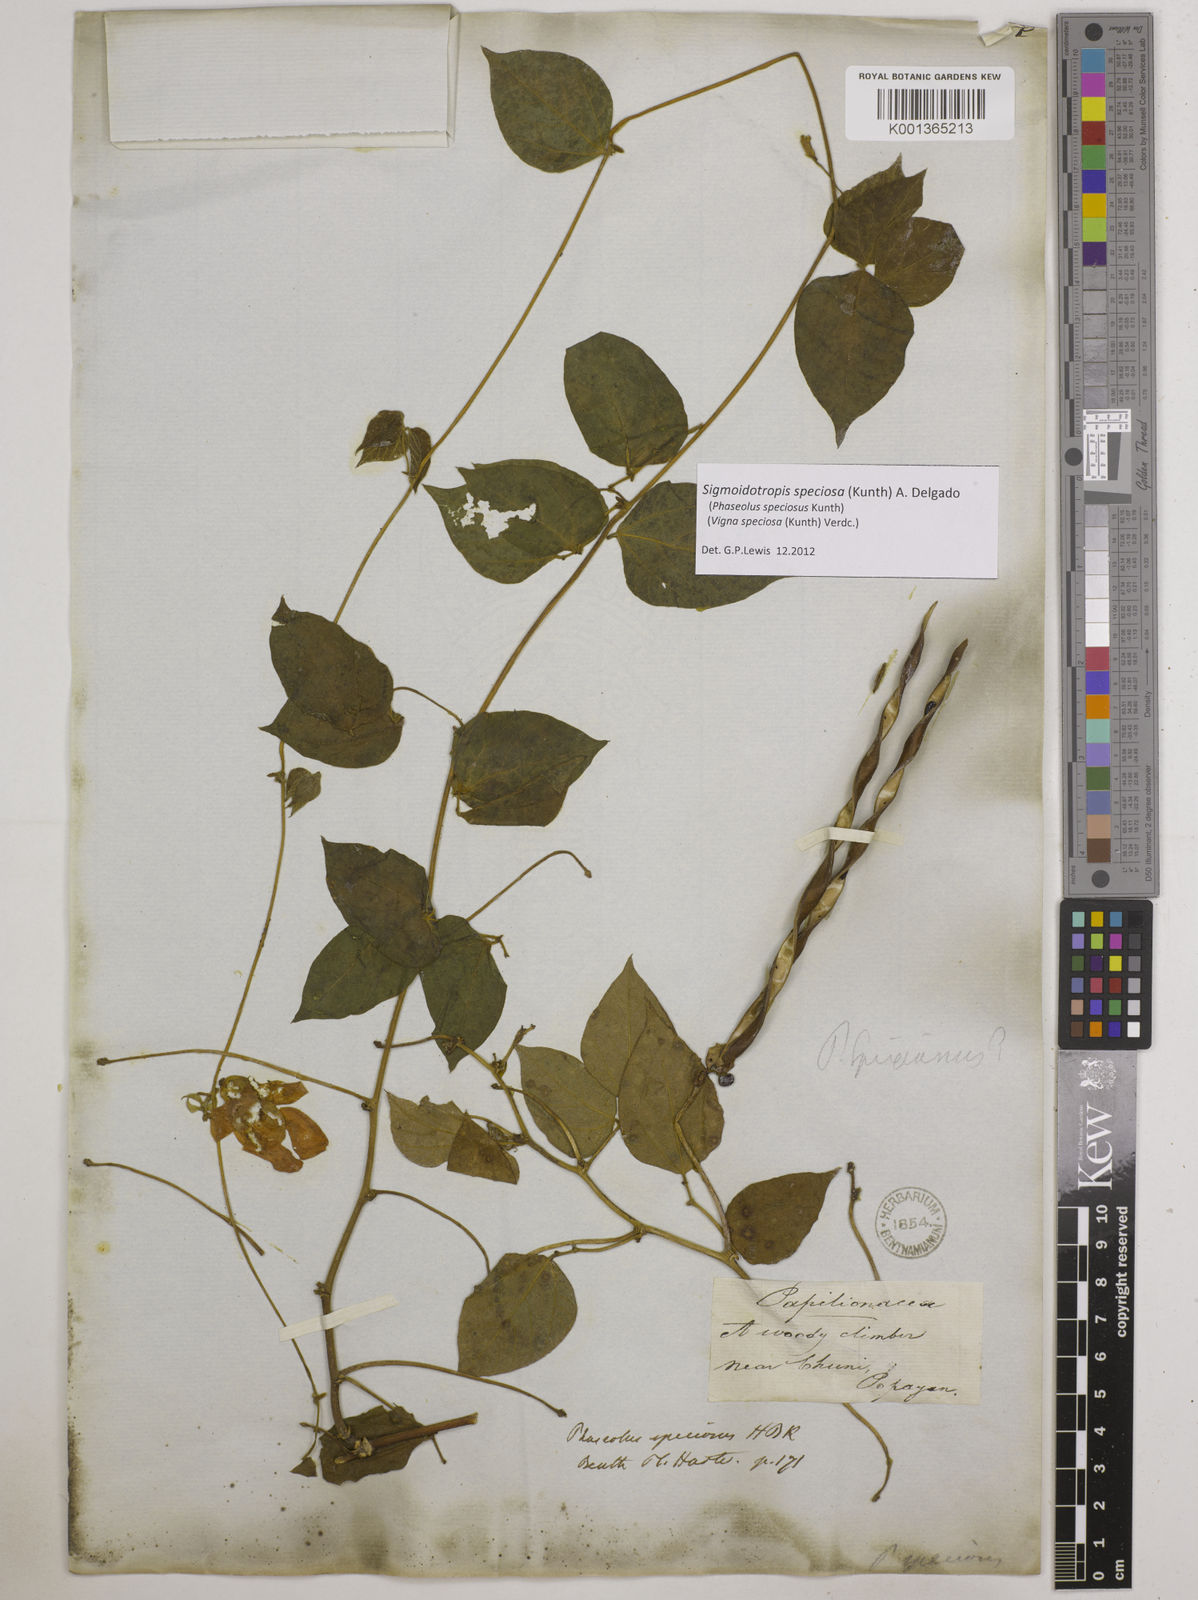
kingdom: Plantae
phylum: Tracheophyta
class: Magnoliopsida
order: Fabales
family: Fabaceae
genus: Sigmoidotropis
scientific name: Sigmoidotropis speciosa
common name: Snail flower
